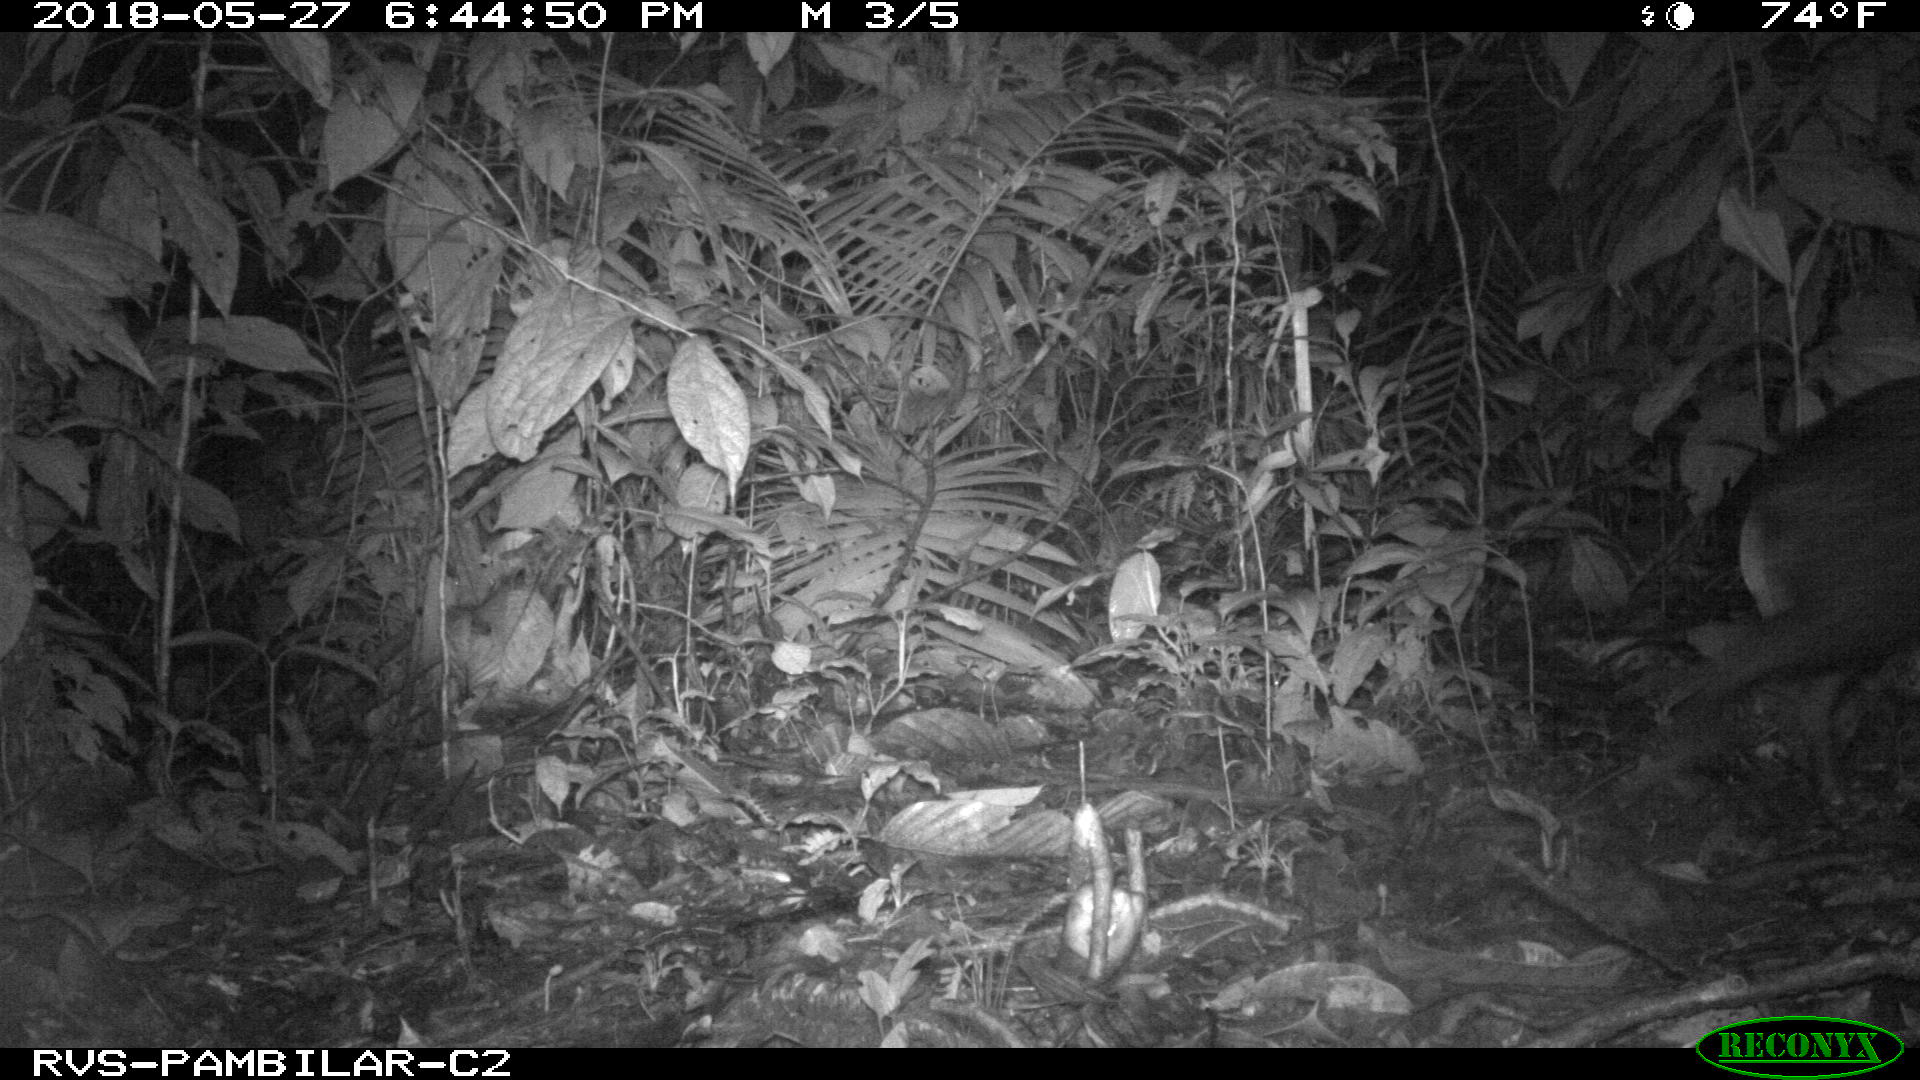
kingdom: Animalia
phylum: Chordata
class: Mammalia
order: Artiodactyla
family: Tayassuidae
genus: Tayassu
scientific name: Tayassu pecari
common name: White-lipped peccary
